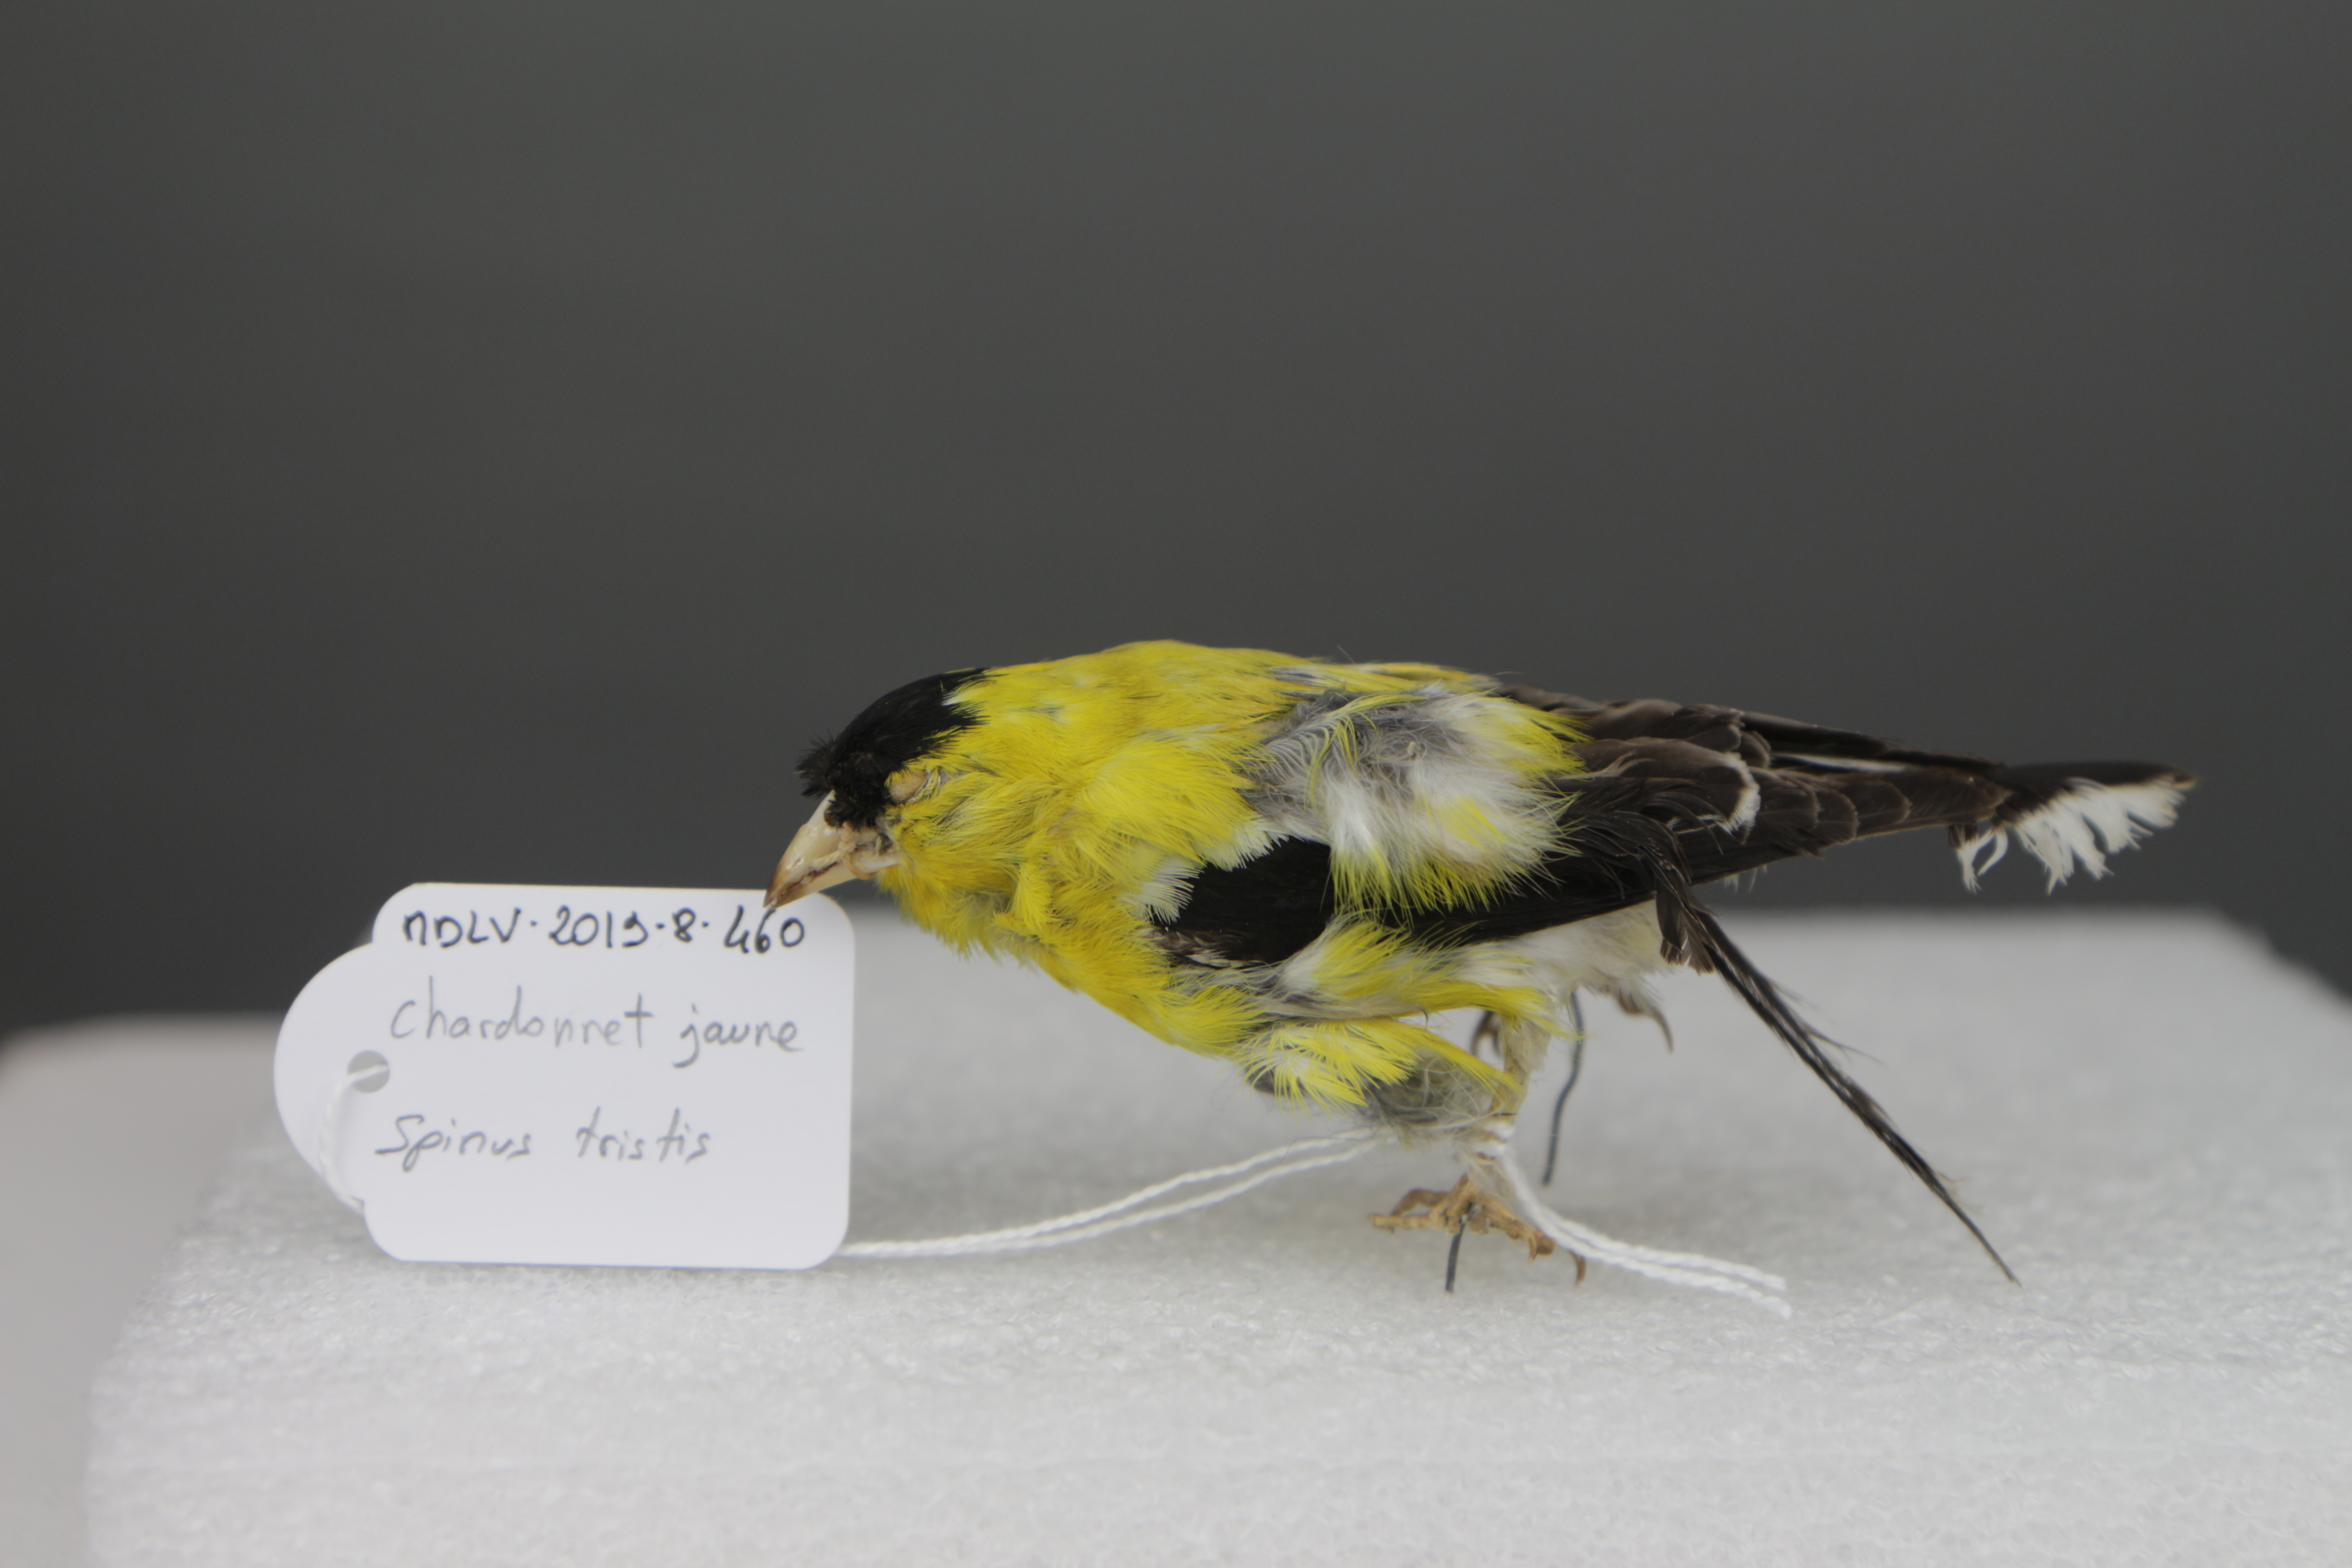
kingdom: Animalia
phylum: Chordata
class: Aves
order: Passeriformes
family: Fringillidae
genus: Spinus
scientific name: Spinus tristis
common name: American goldfinch
